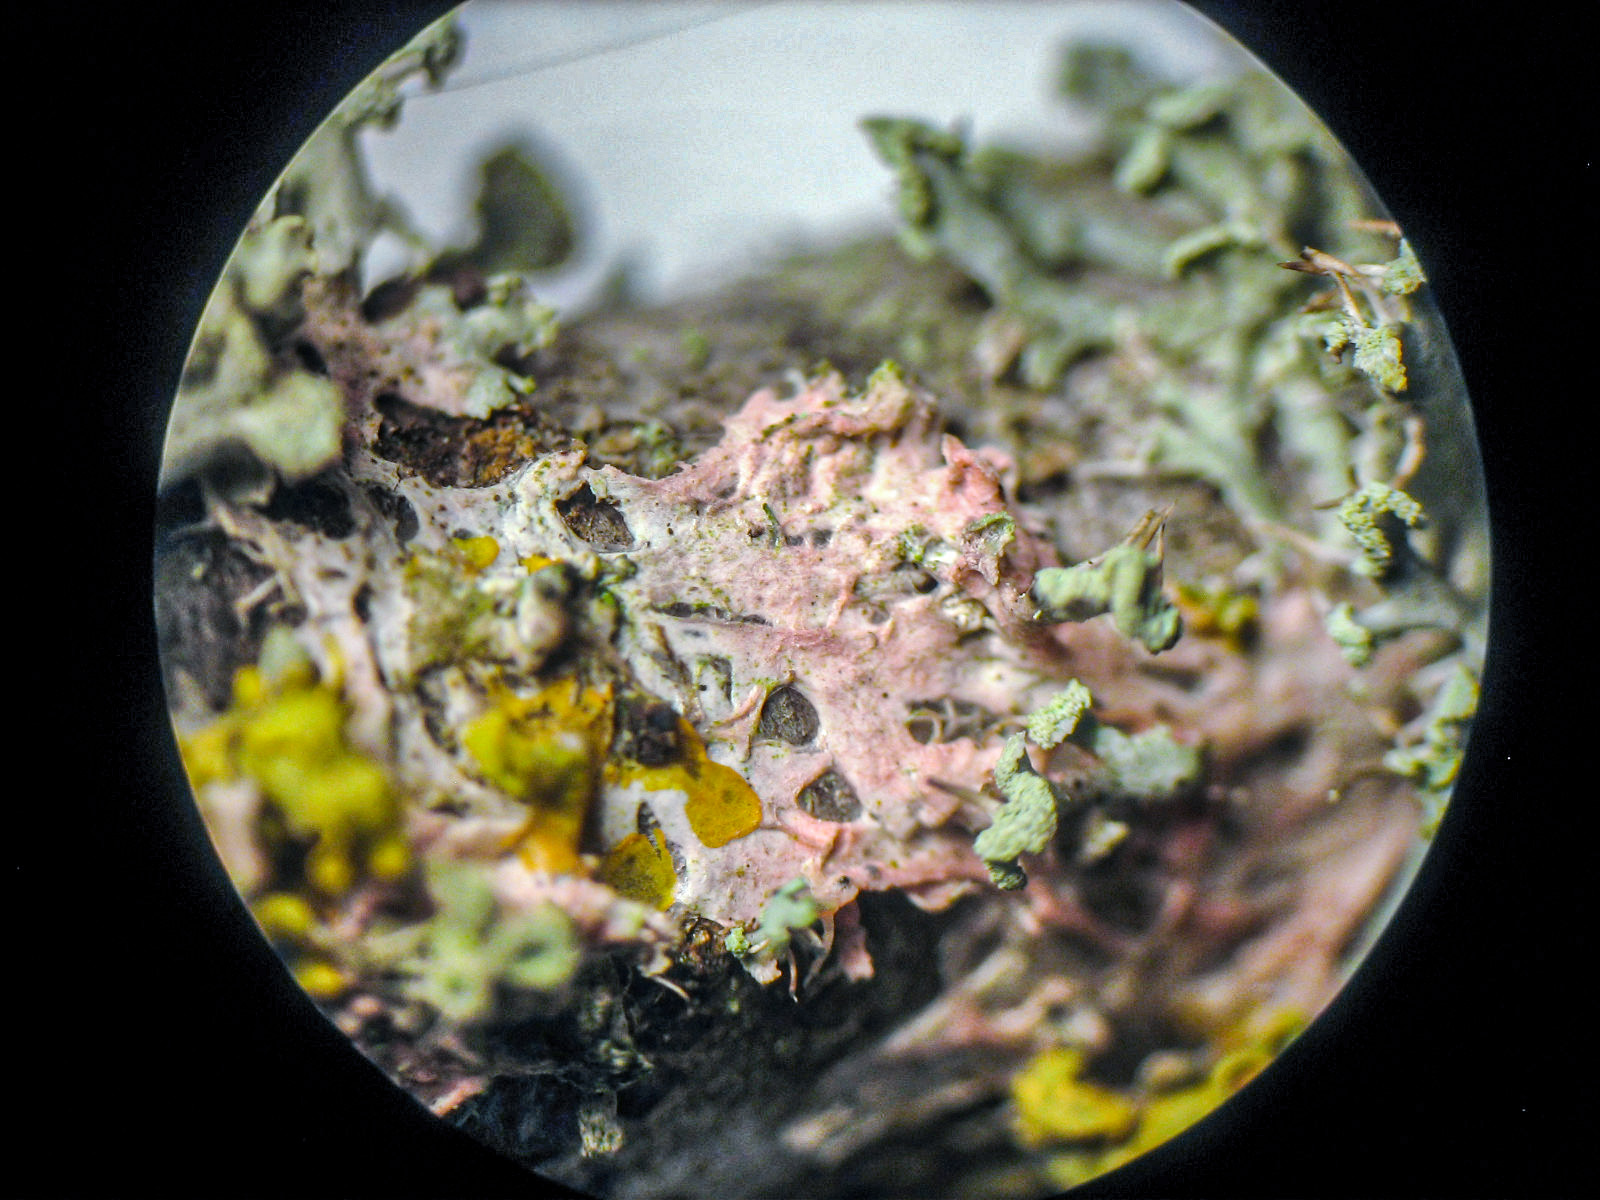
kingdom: Fungi
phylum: Basidiomycota
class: Agaricomycetes
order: Corticiales
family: Corticiaceae
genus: Laetisaria
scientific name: Laetisaria lichenicola
